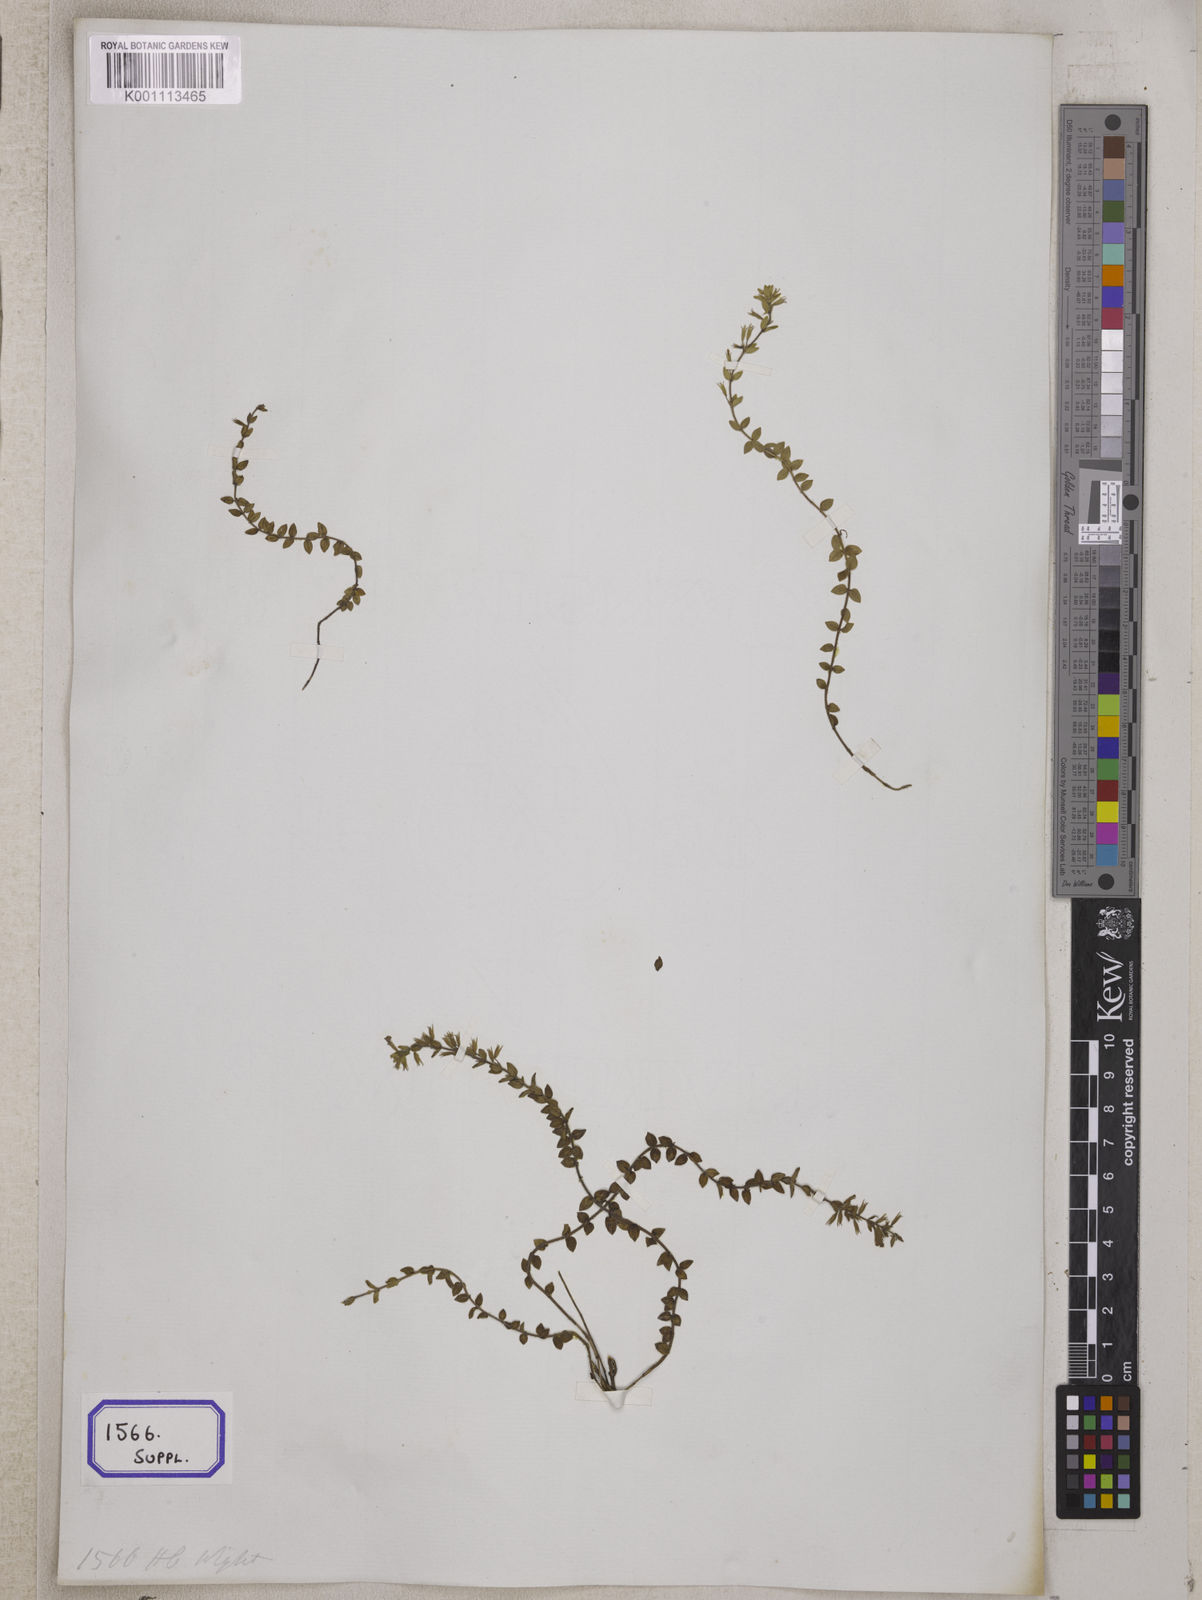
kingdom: Plantae
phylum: Tracheophyta
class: Magnoliopsida
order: Lamiales
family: Lamiaceae
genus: Thymus
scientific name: Thymus
